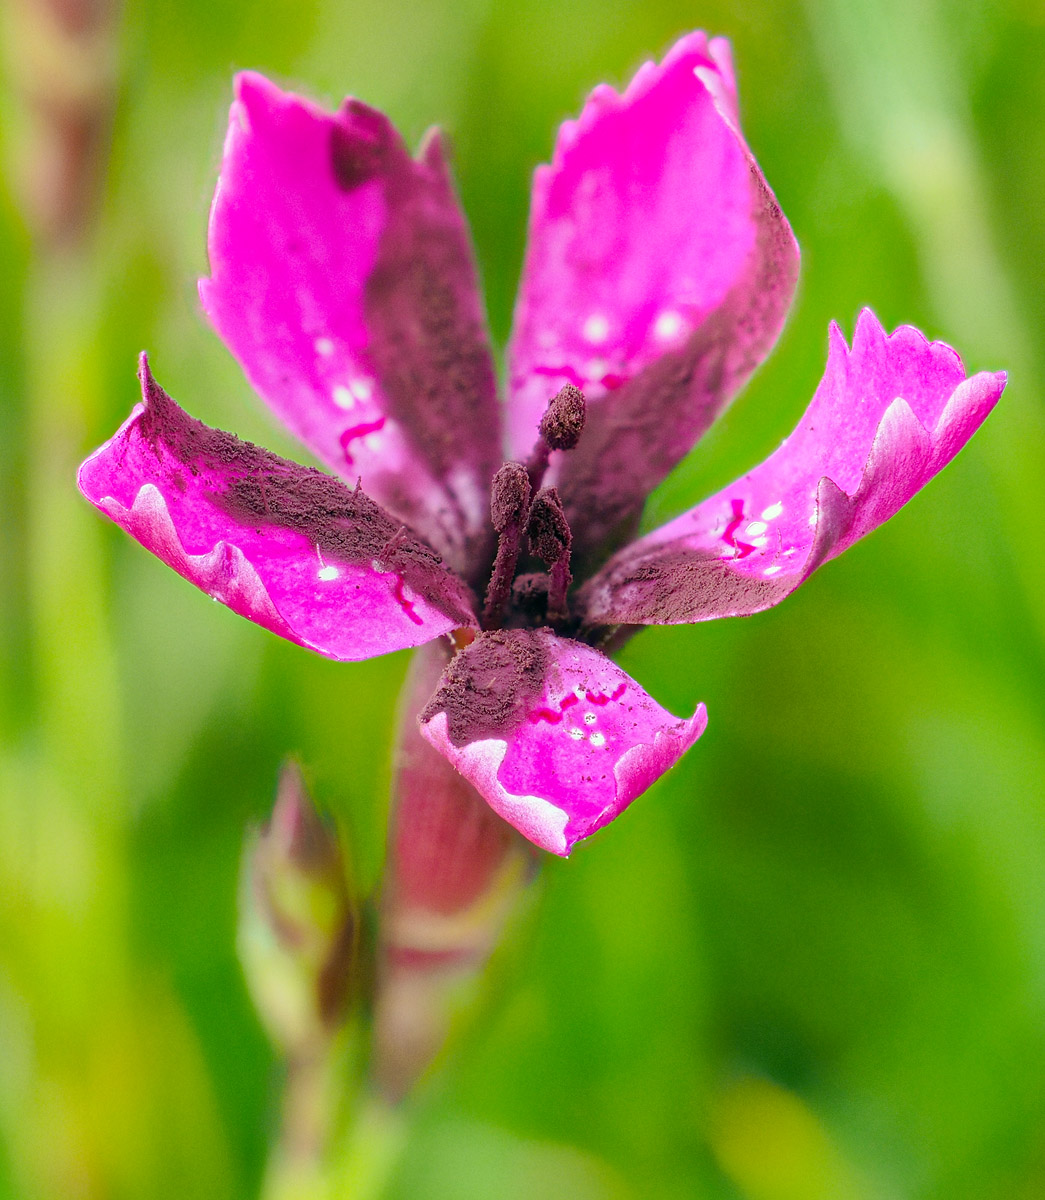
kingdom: Fungi
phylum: Basidiomycota
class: Microbotryomycetes
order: Microbotryales
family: Microbotryaceae
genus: Microbotryum
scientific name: Microbotryum dianthorum
